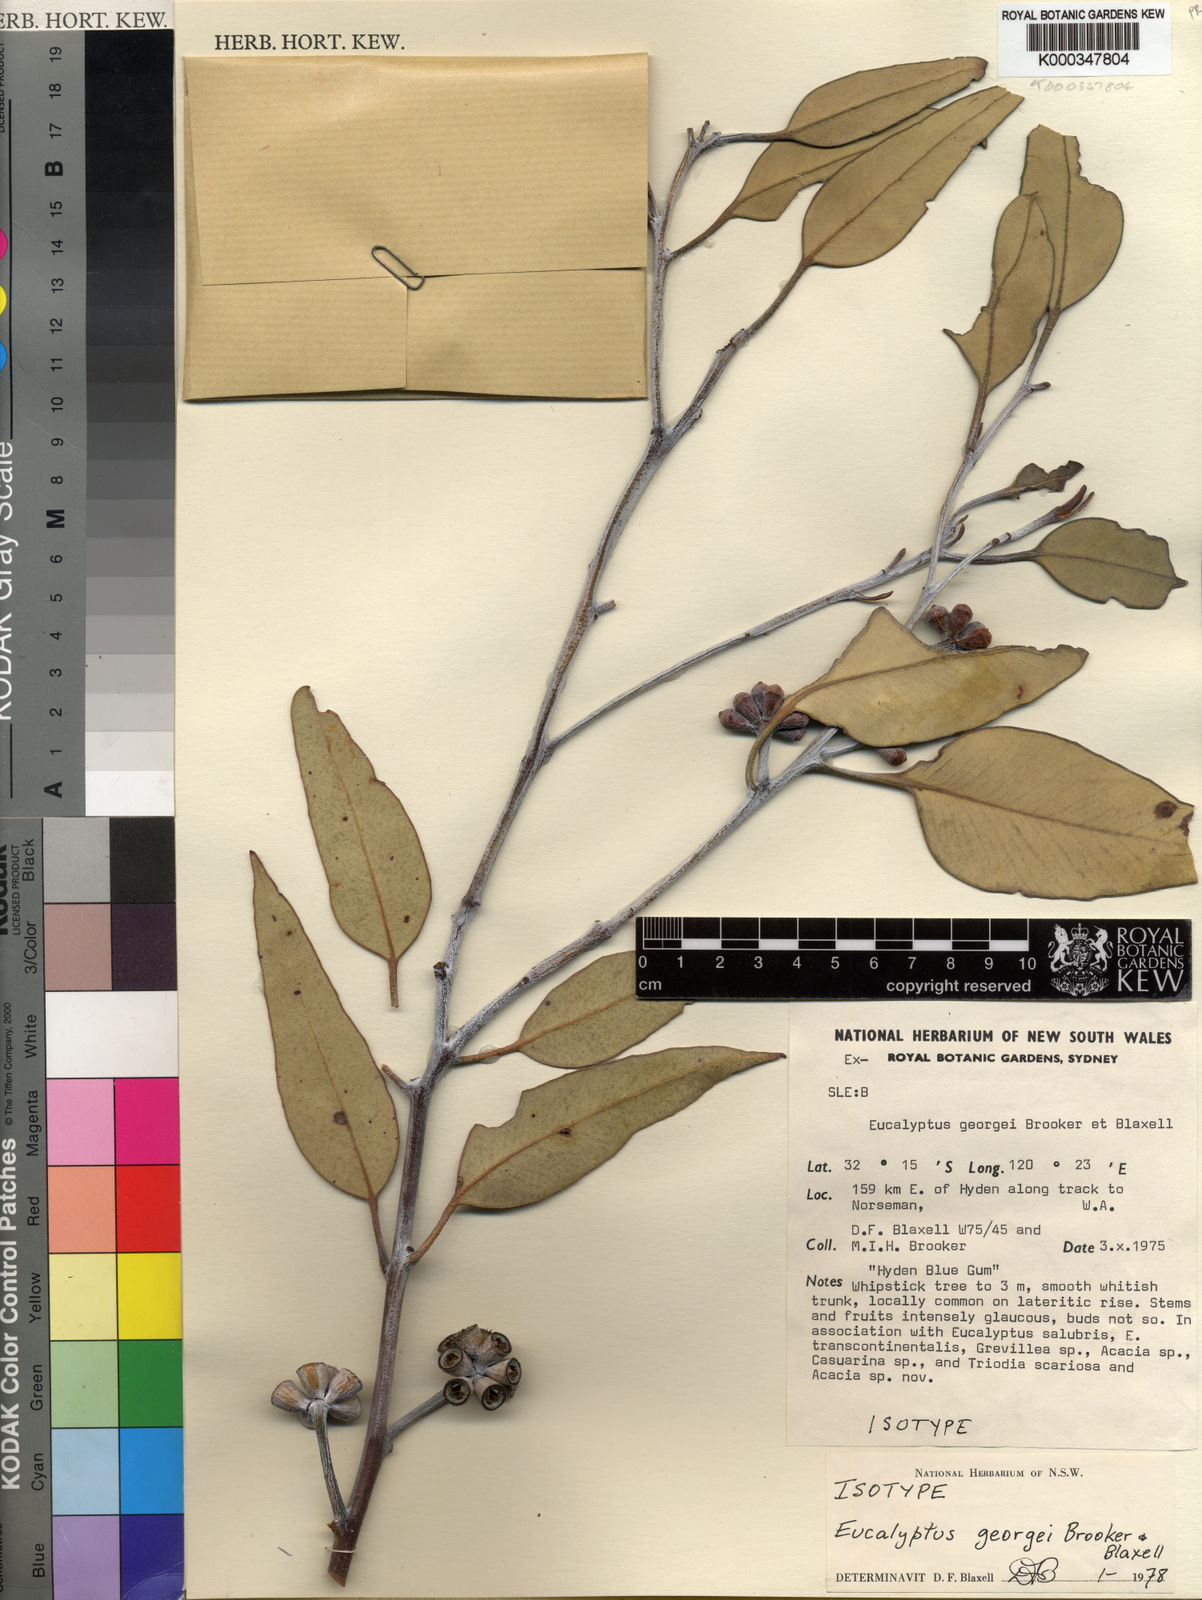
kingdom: Plantae
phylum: Tracheophyta
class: Magnoliopsida
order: Myrtales
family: Myrtaceae
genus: Eucalyptus
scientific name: Eucalyptus georgei
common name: Hyden blue gum
